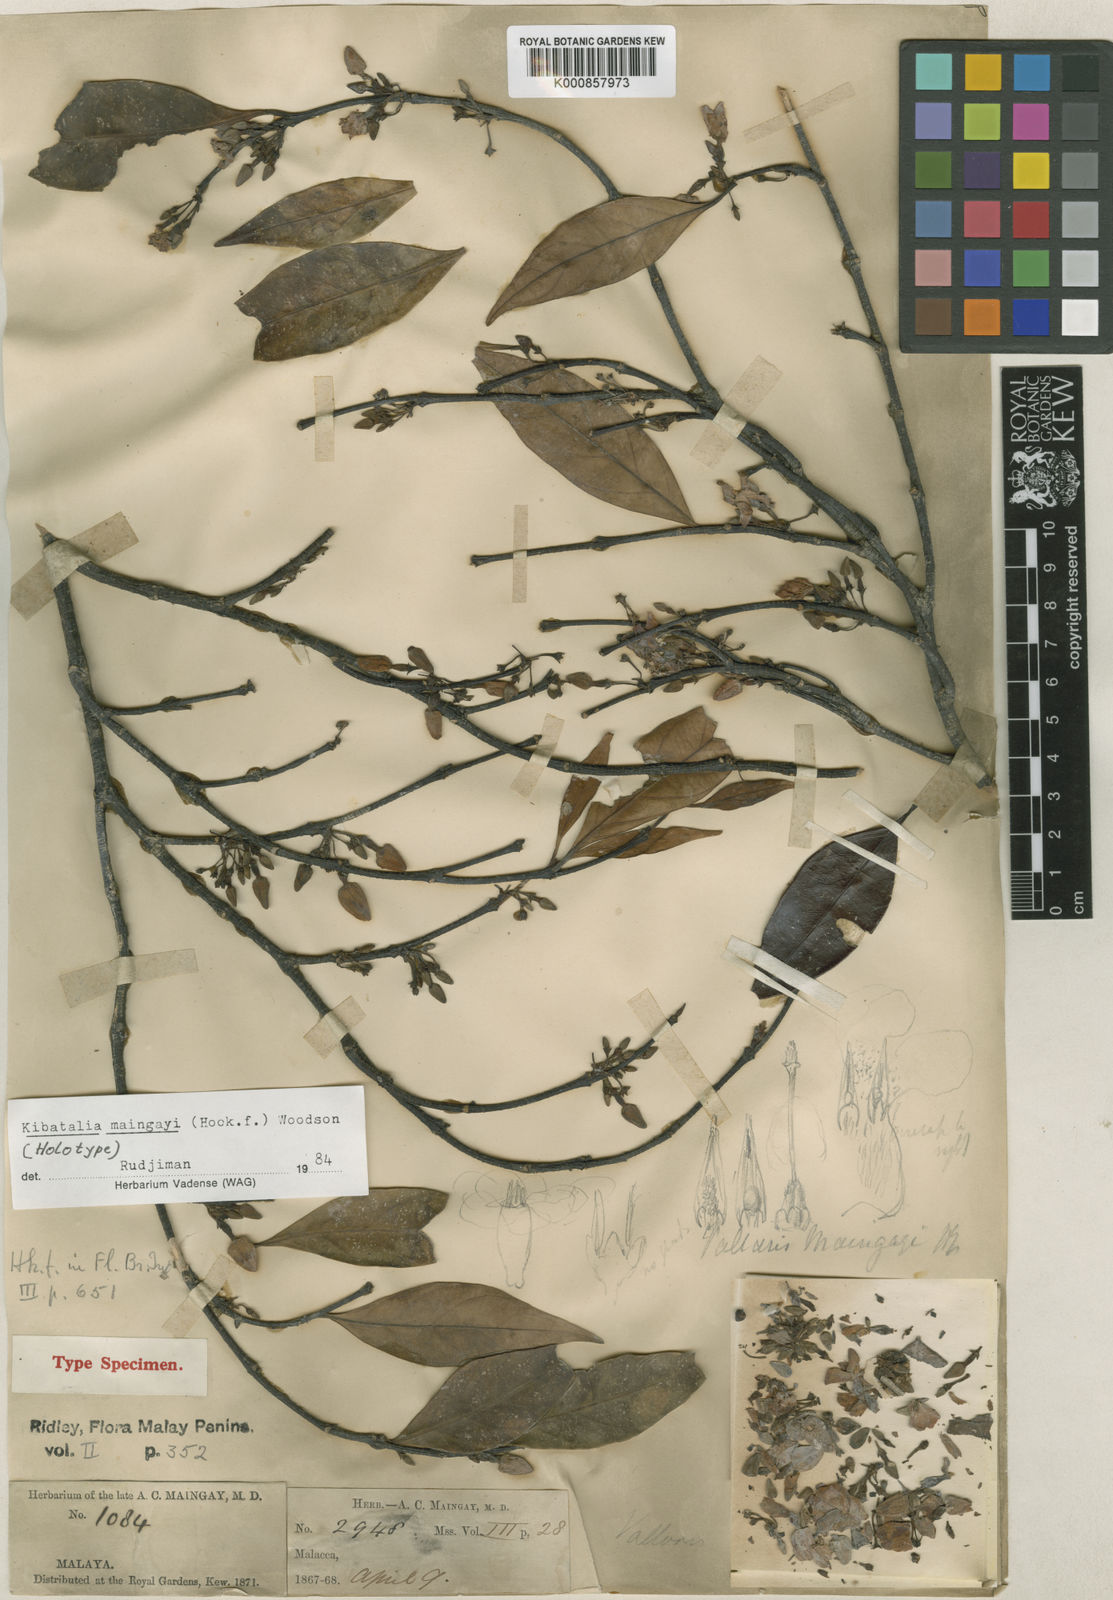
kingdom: Plantae
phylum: Tracheophyta
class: Magnoliopsida
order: Gentianales
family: Apocynaceae
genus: Kibatalia
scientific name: Kibatalia maingayi
